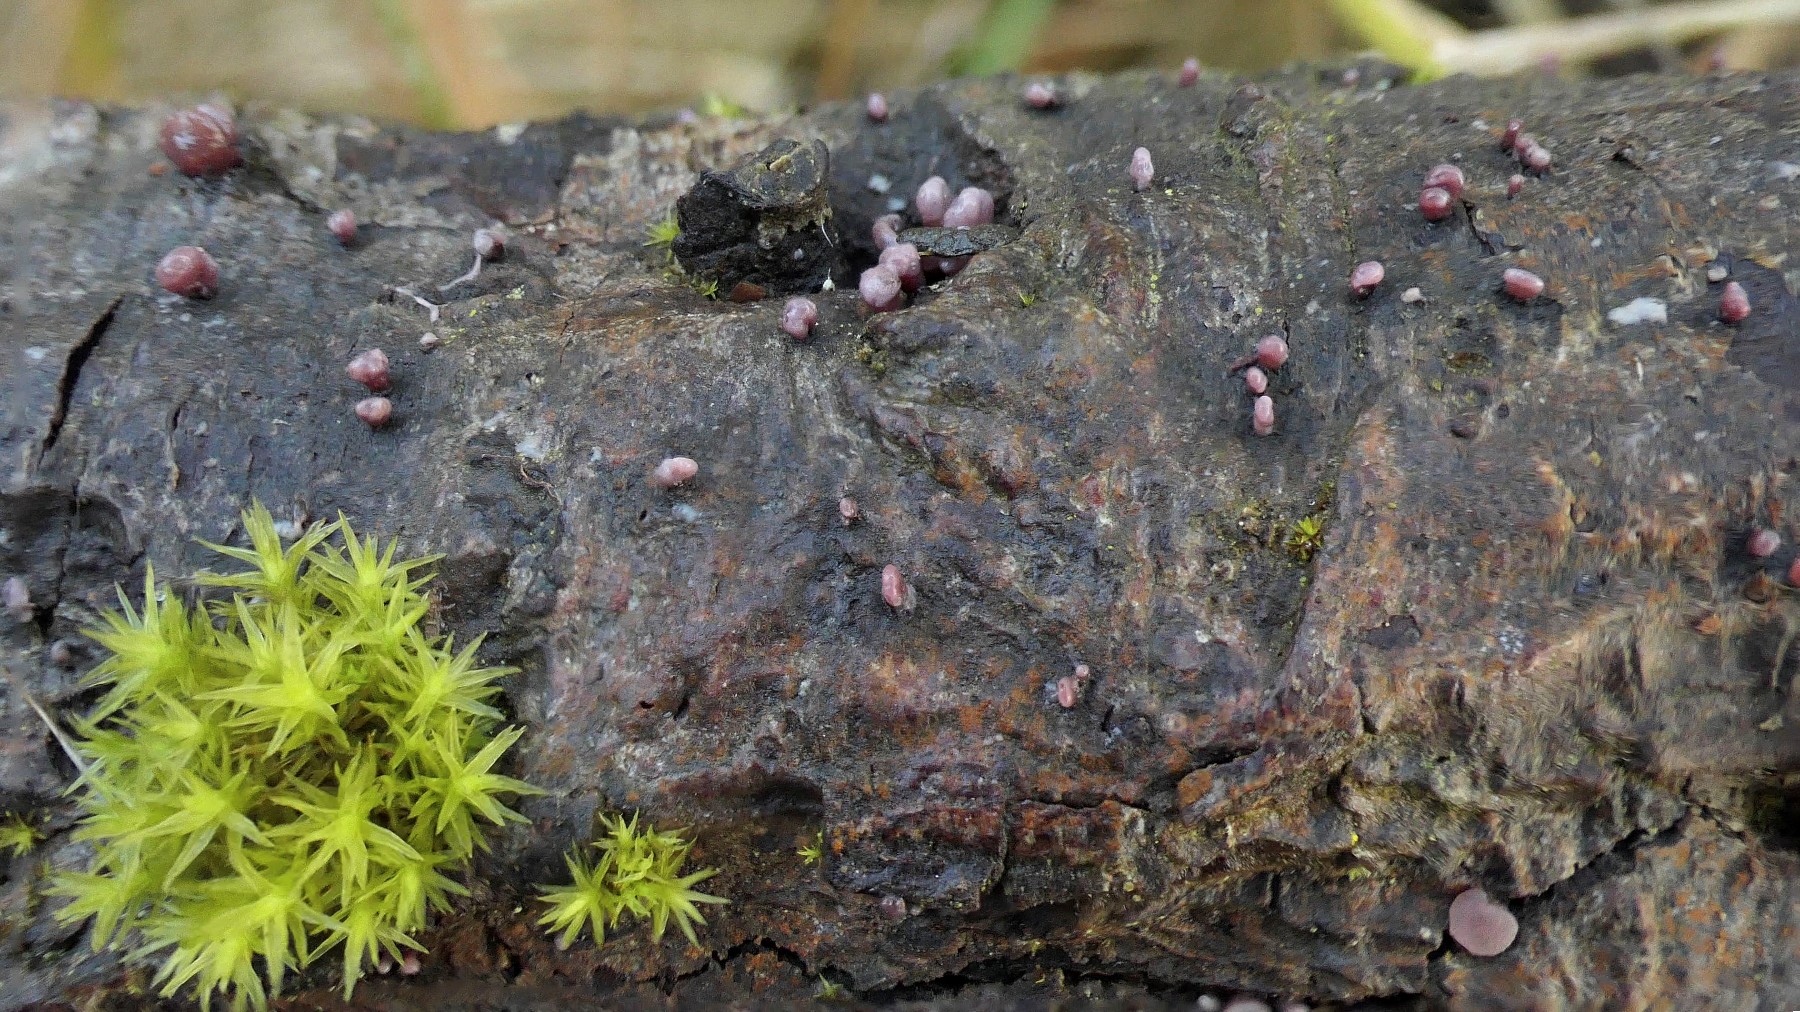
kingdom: Fungi
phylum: Ascomycota
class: Leotiomycetes
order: Helotiales
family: Gelatinodiscaceae
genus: Ascocoryne
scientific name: Ascocoryne sarcoides
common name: rødlilla sejskive
